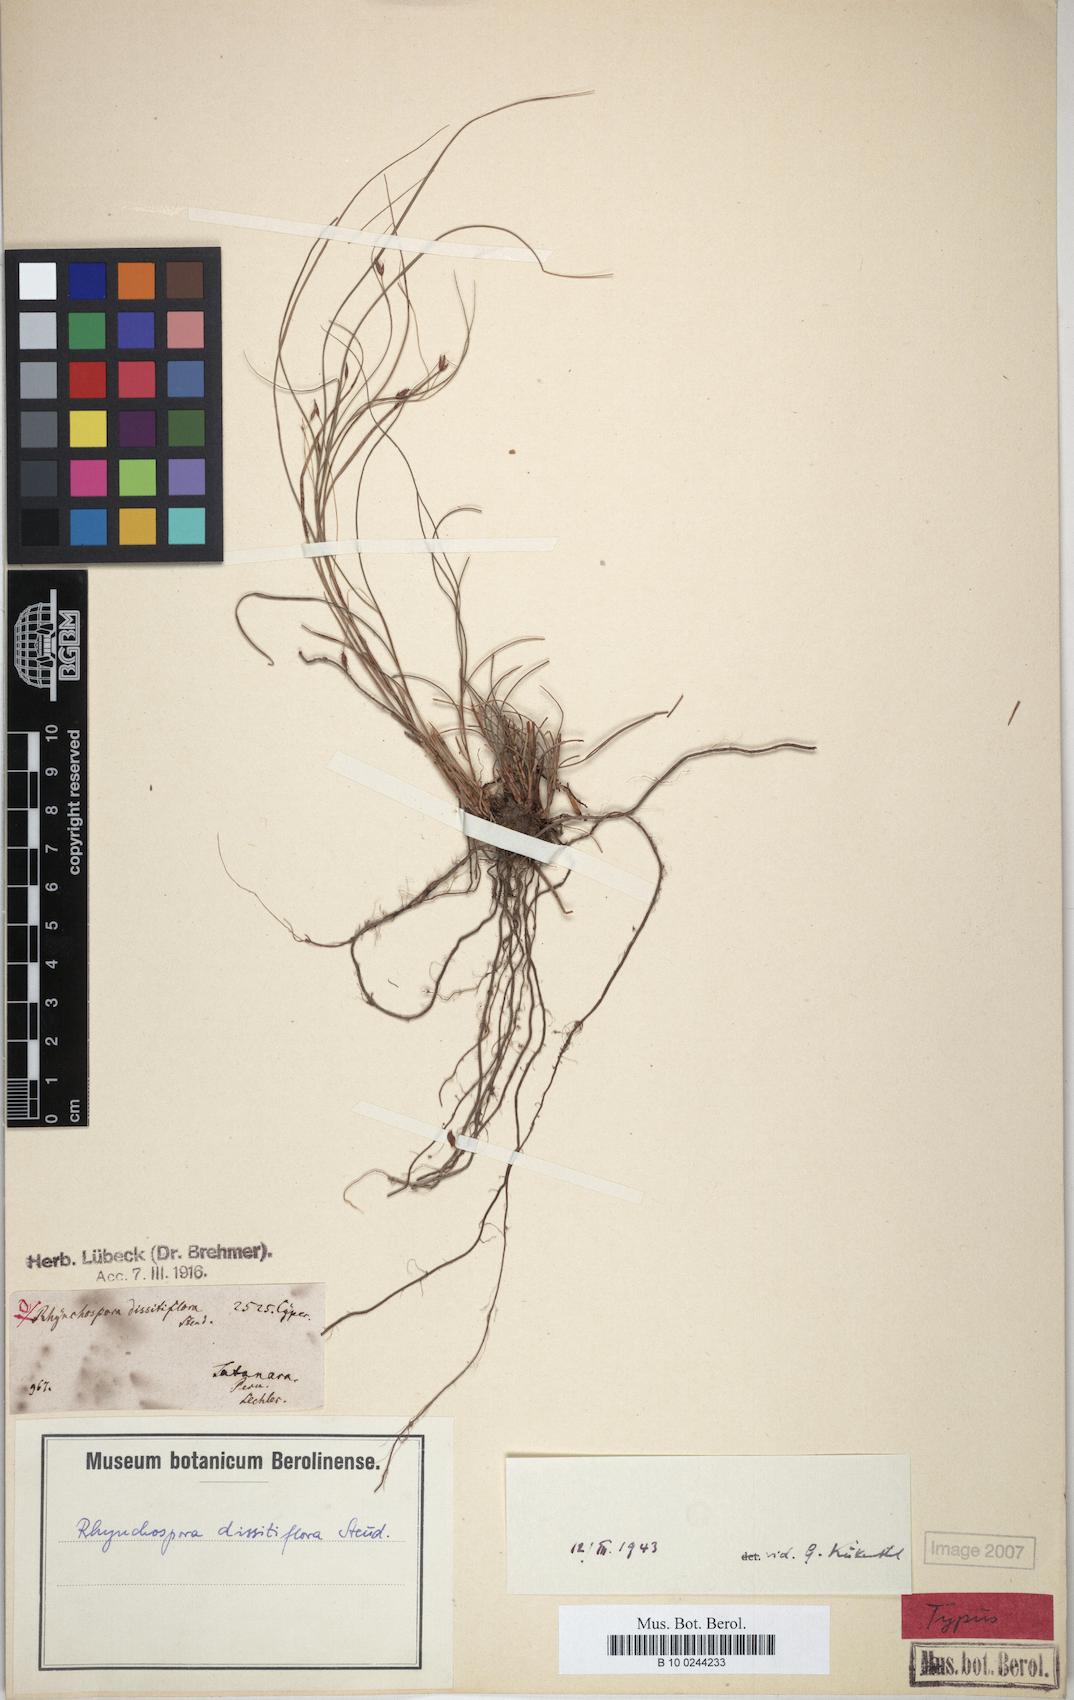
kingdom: Plantae
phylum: Tracheophyta
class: Liliopsida
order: Poales
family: Cyperaceae
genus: Rhynchospora
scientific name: Rhynchospora dissitiflora
